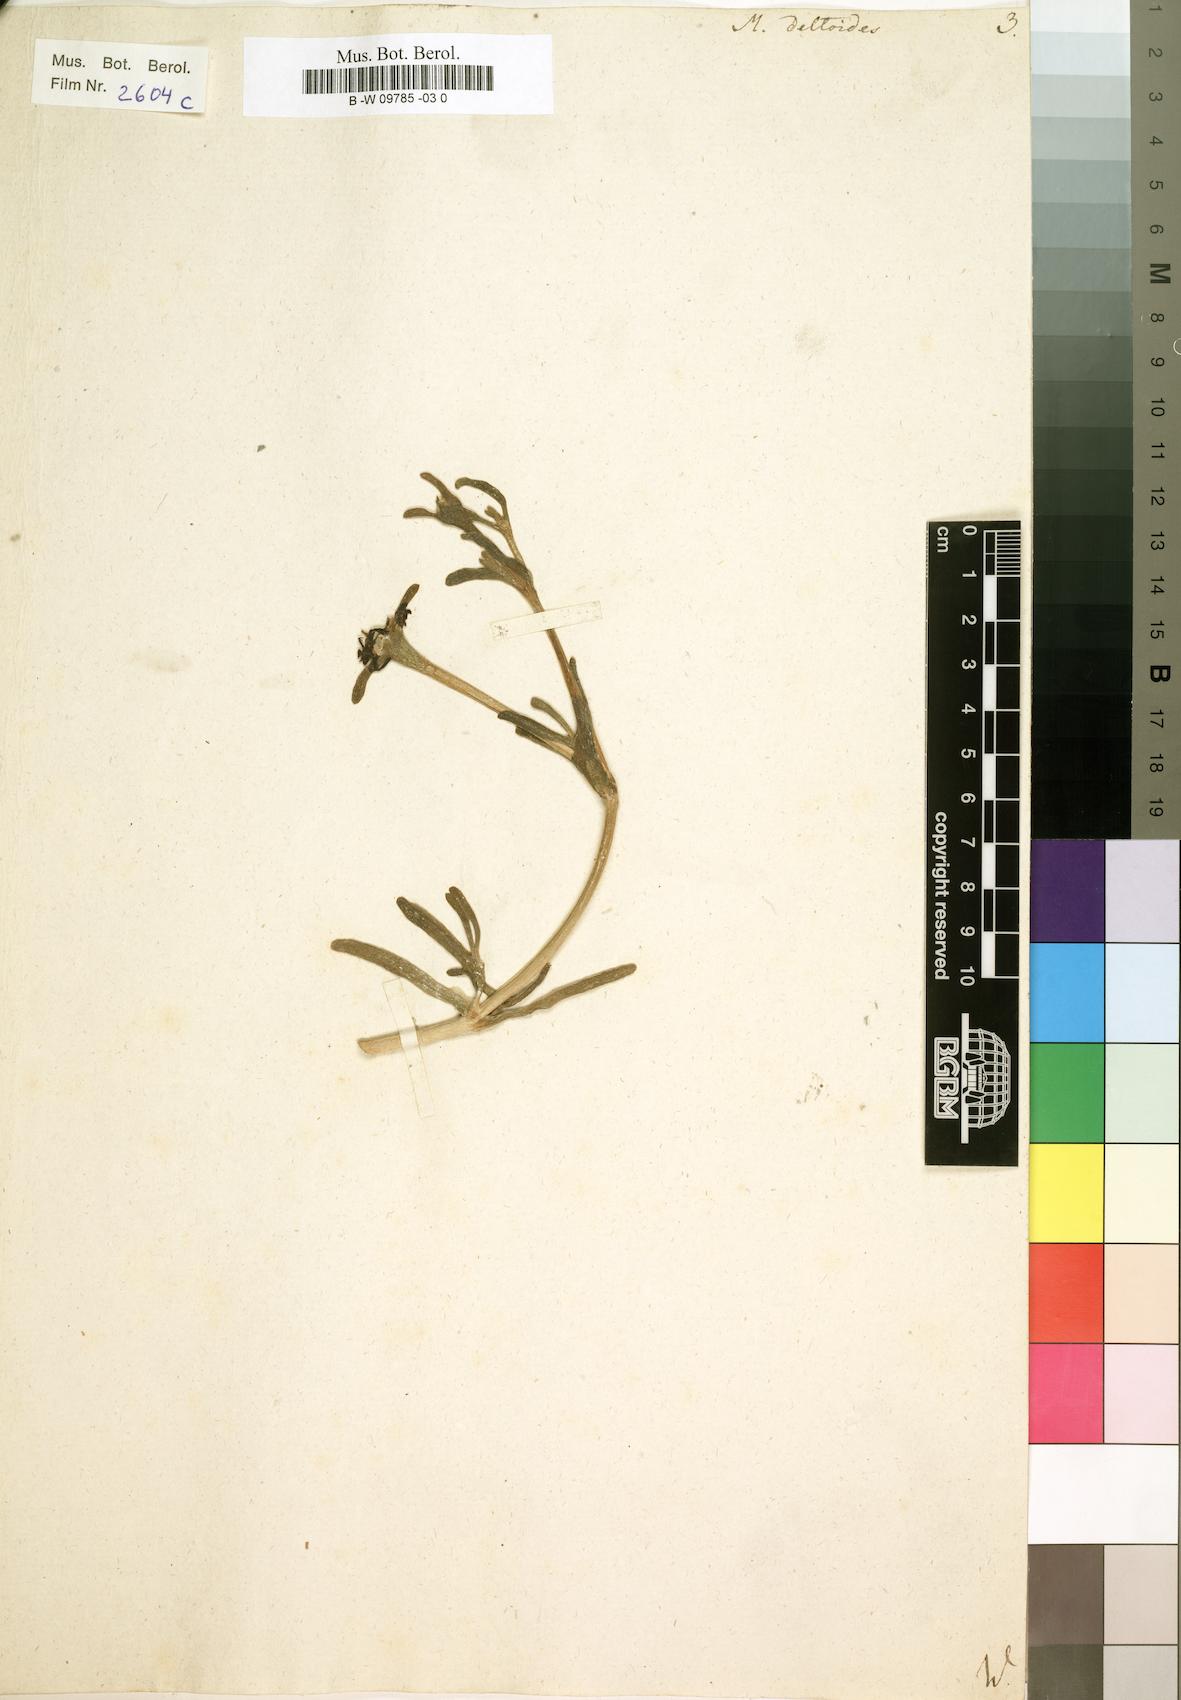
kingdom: Plantae
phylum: Tracheophyta
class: Magnoliopsida
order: Caryophyllales
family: Aizoaceae
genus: Oscularia
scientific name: Oscularia deltoides
